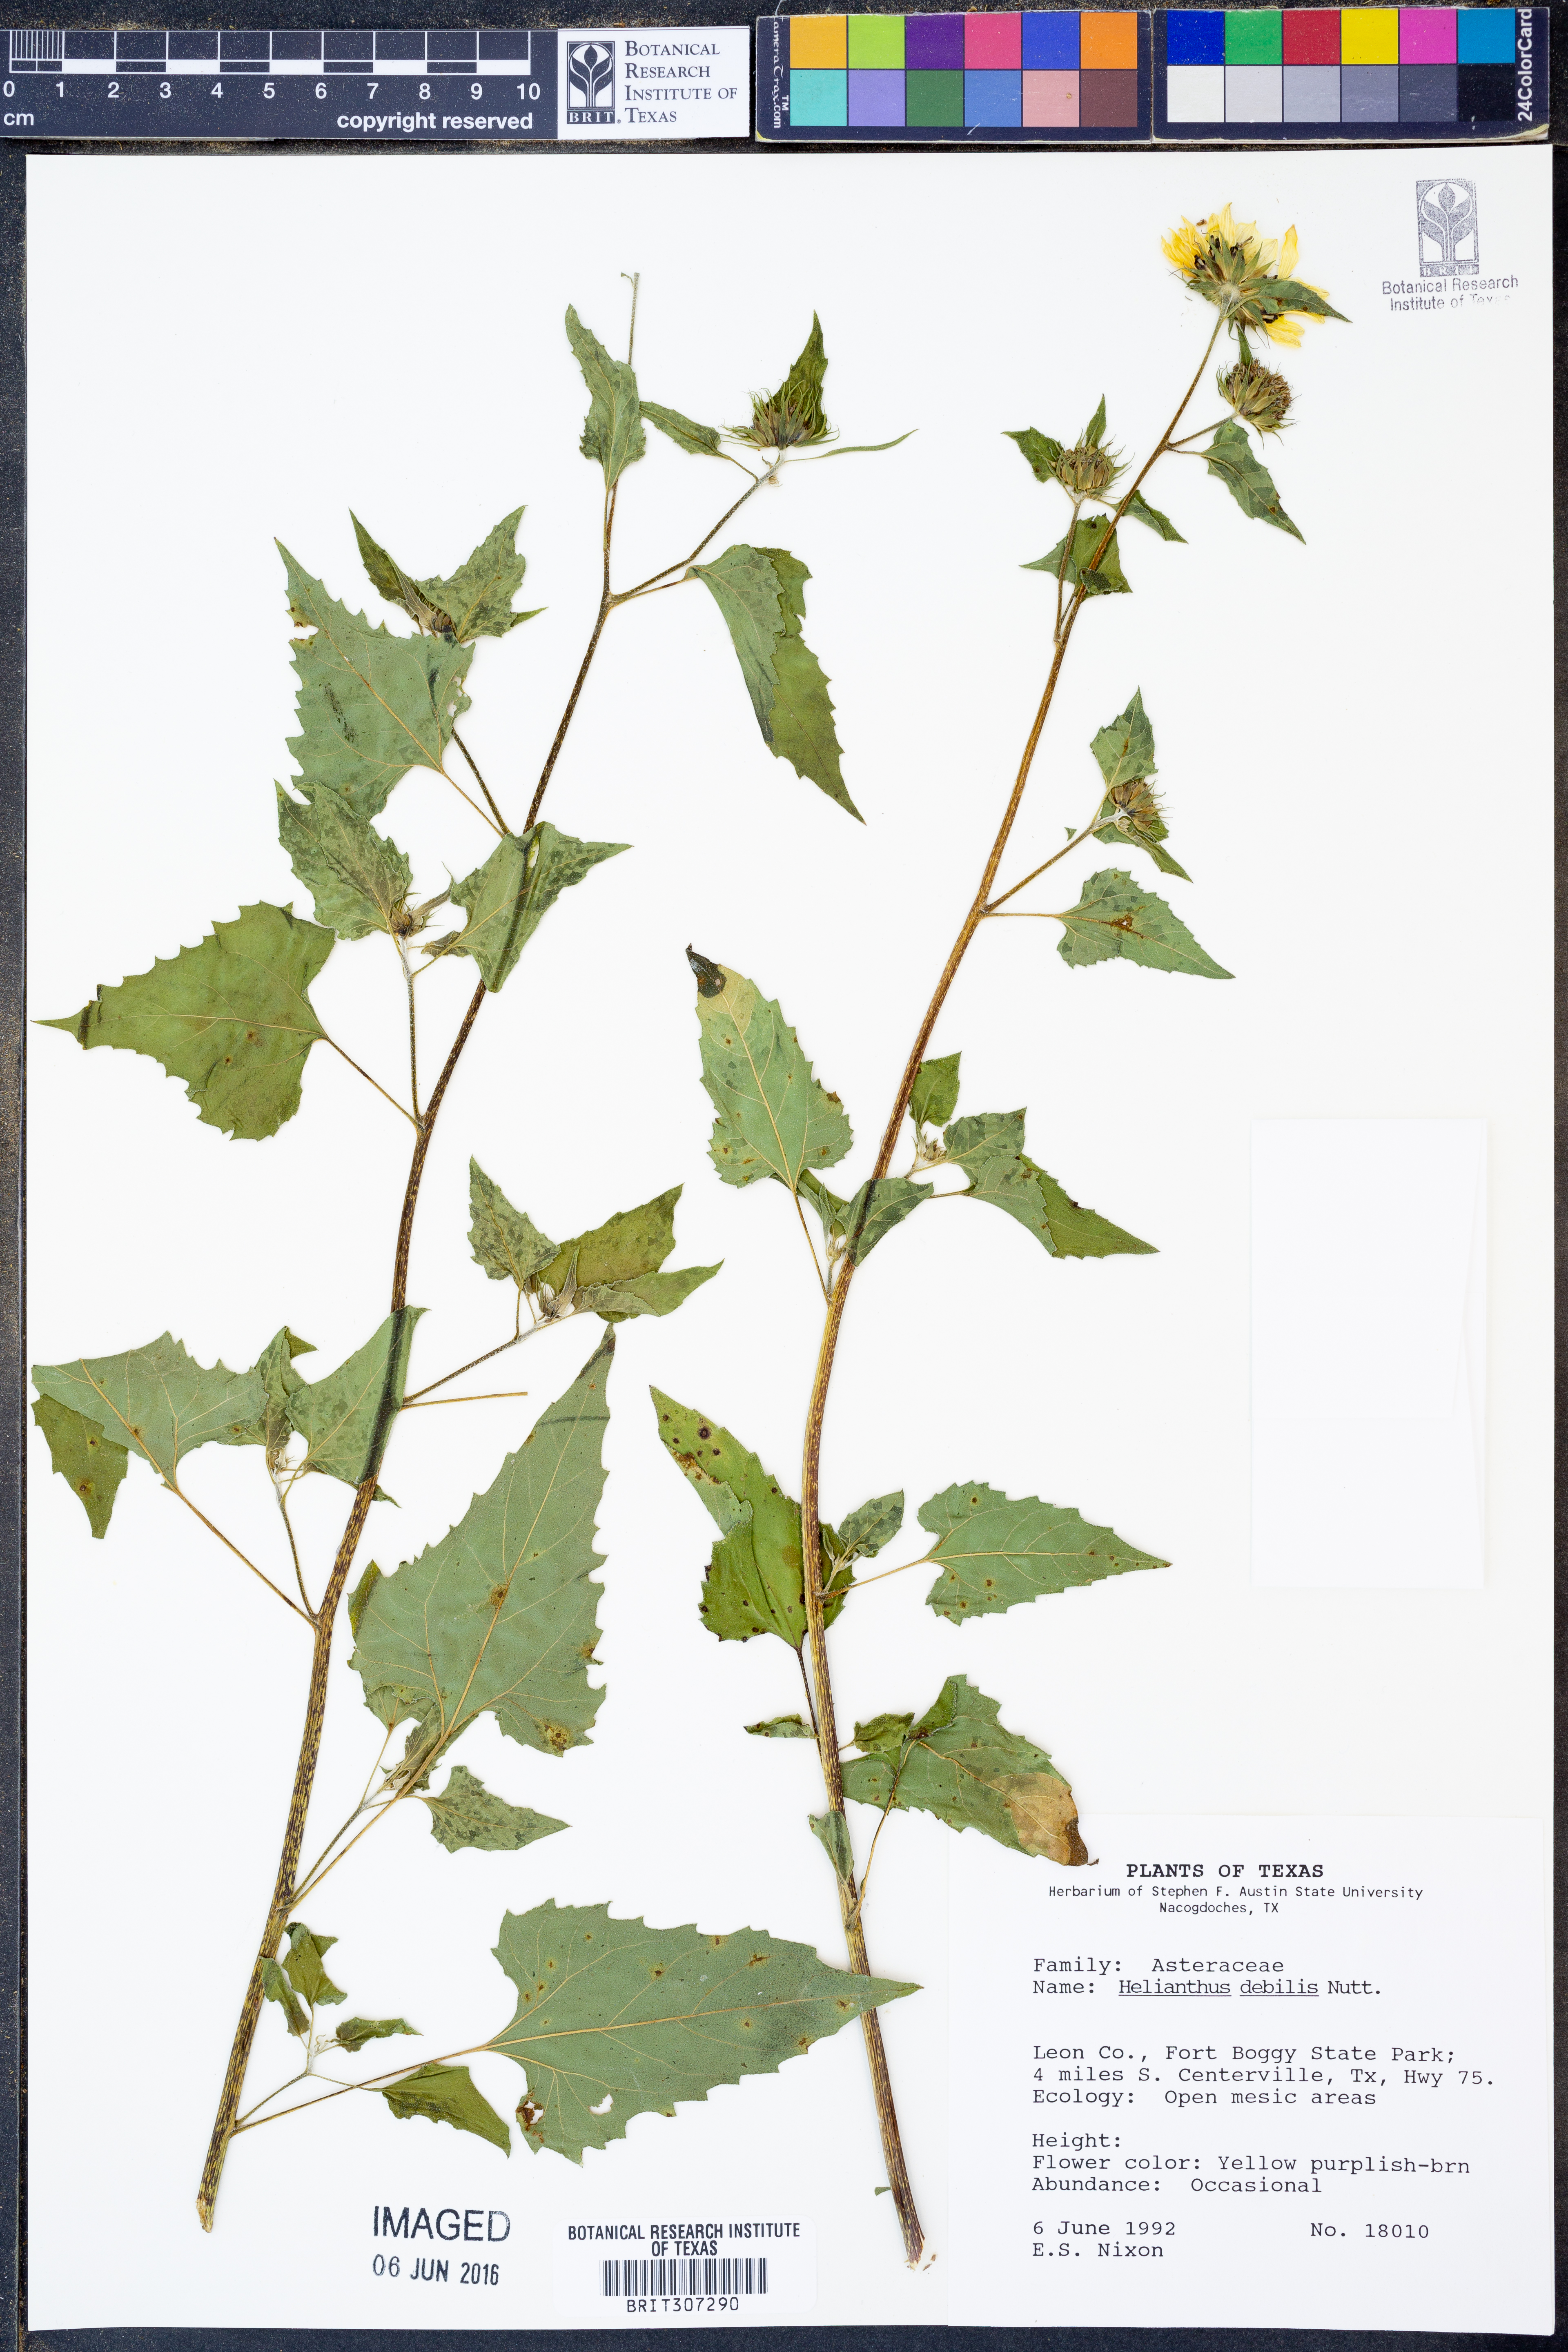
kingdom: Plantae
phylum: Tracheophyta
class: Magnoliopsida
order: Asterales
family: Asteraceae
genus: Helianthus
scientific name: Helianthus debilis
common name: Weak sunflower
